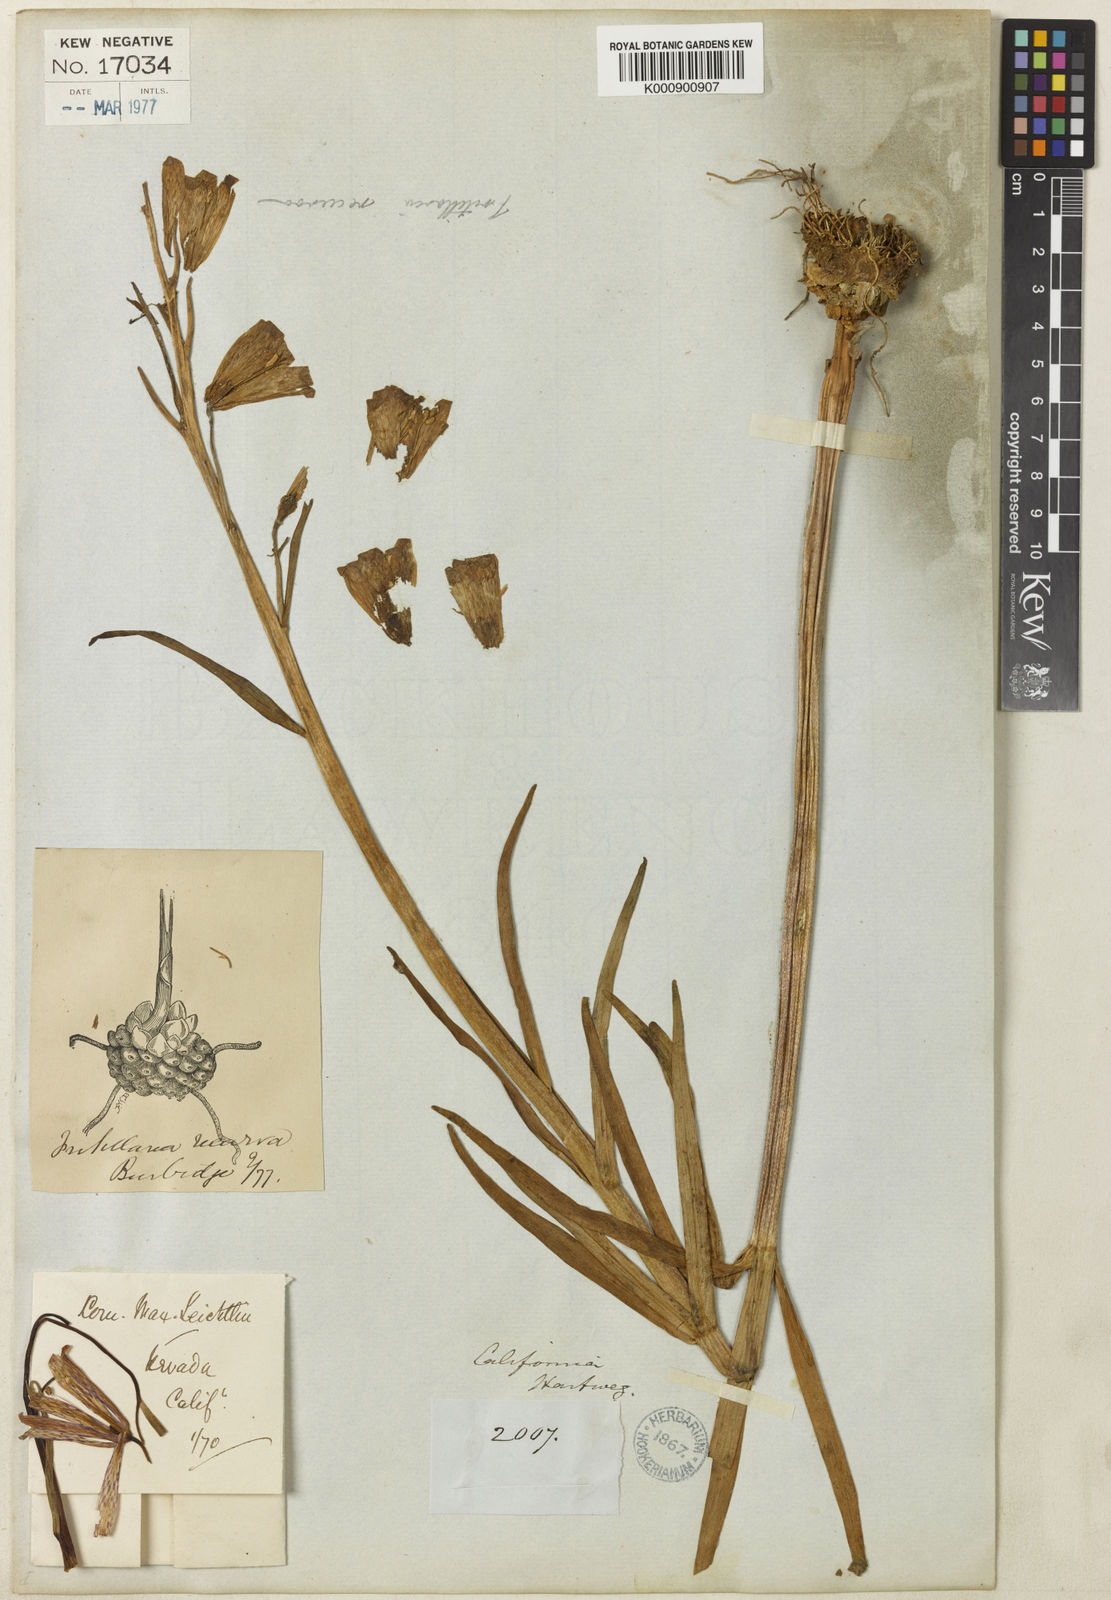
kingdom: Plantae
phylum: Tracheophyta
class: Liliopsida
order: Liliales
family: Liliaceae
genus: Fritillaria
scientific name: Fritillaria recurva
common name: Scarlet fritillary
